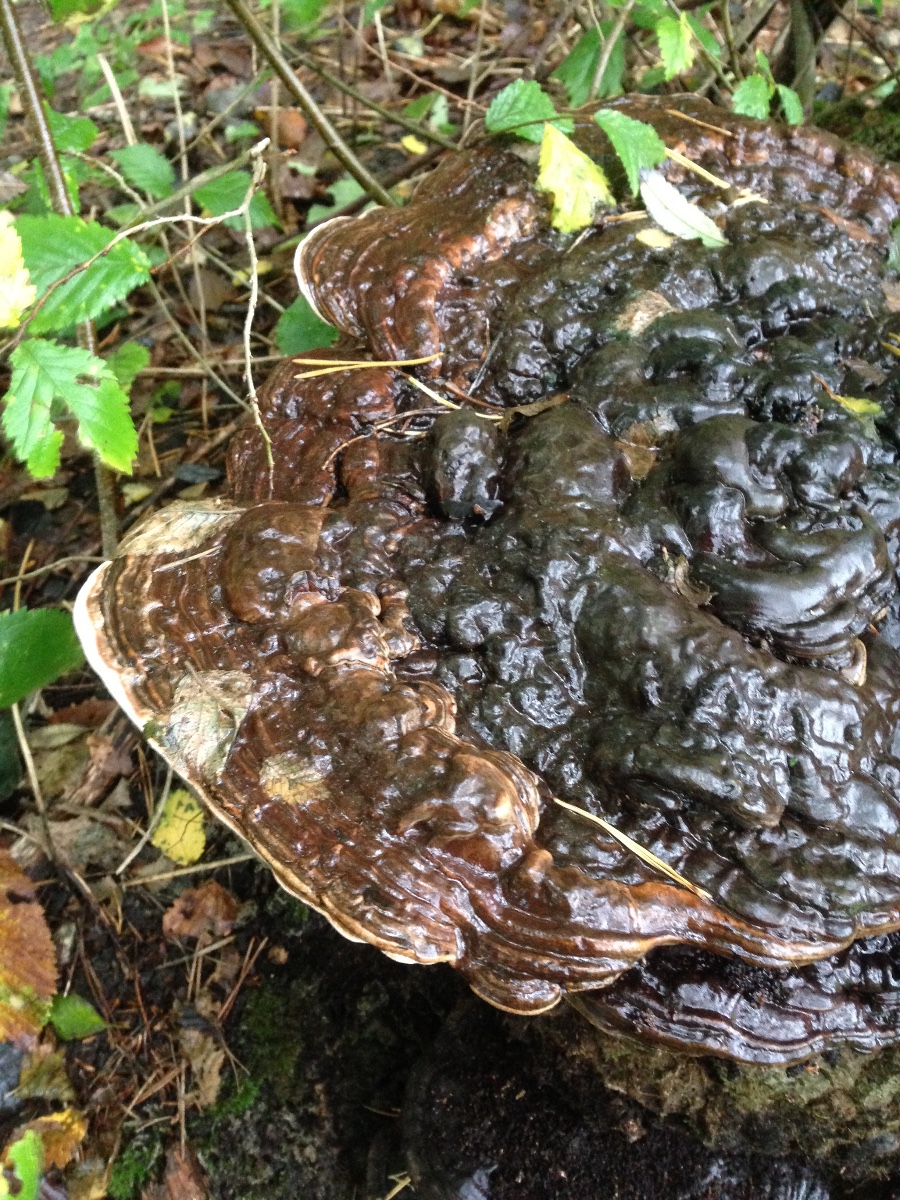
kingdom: Fungi
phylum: Basidiomycota
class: Agaricomycetes
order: Polyporales
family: Polyporaceae
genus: Ganoderma
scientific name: Ganoderma applanatum
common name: flad lakporesvamp
